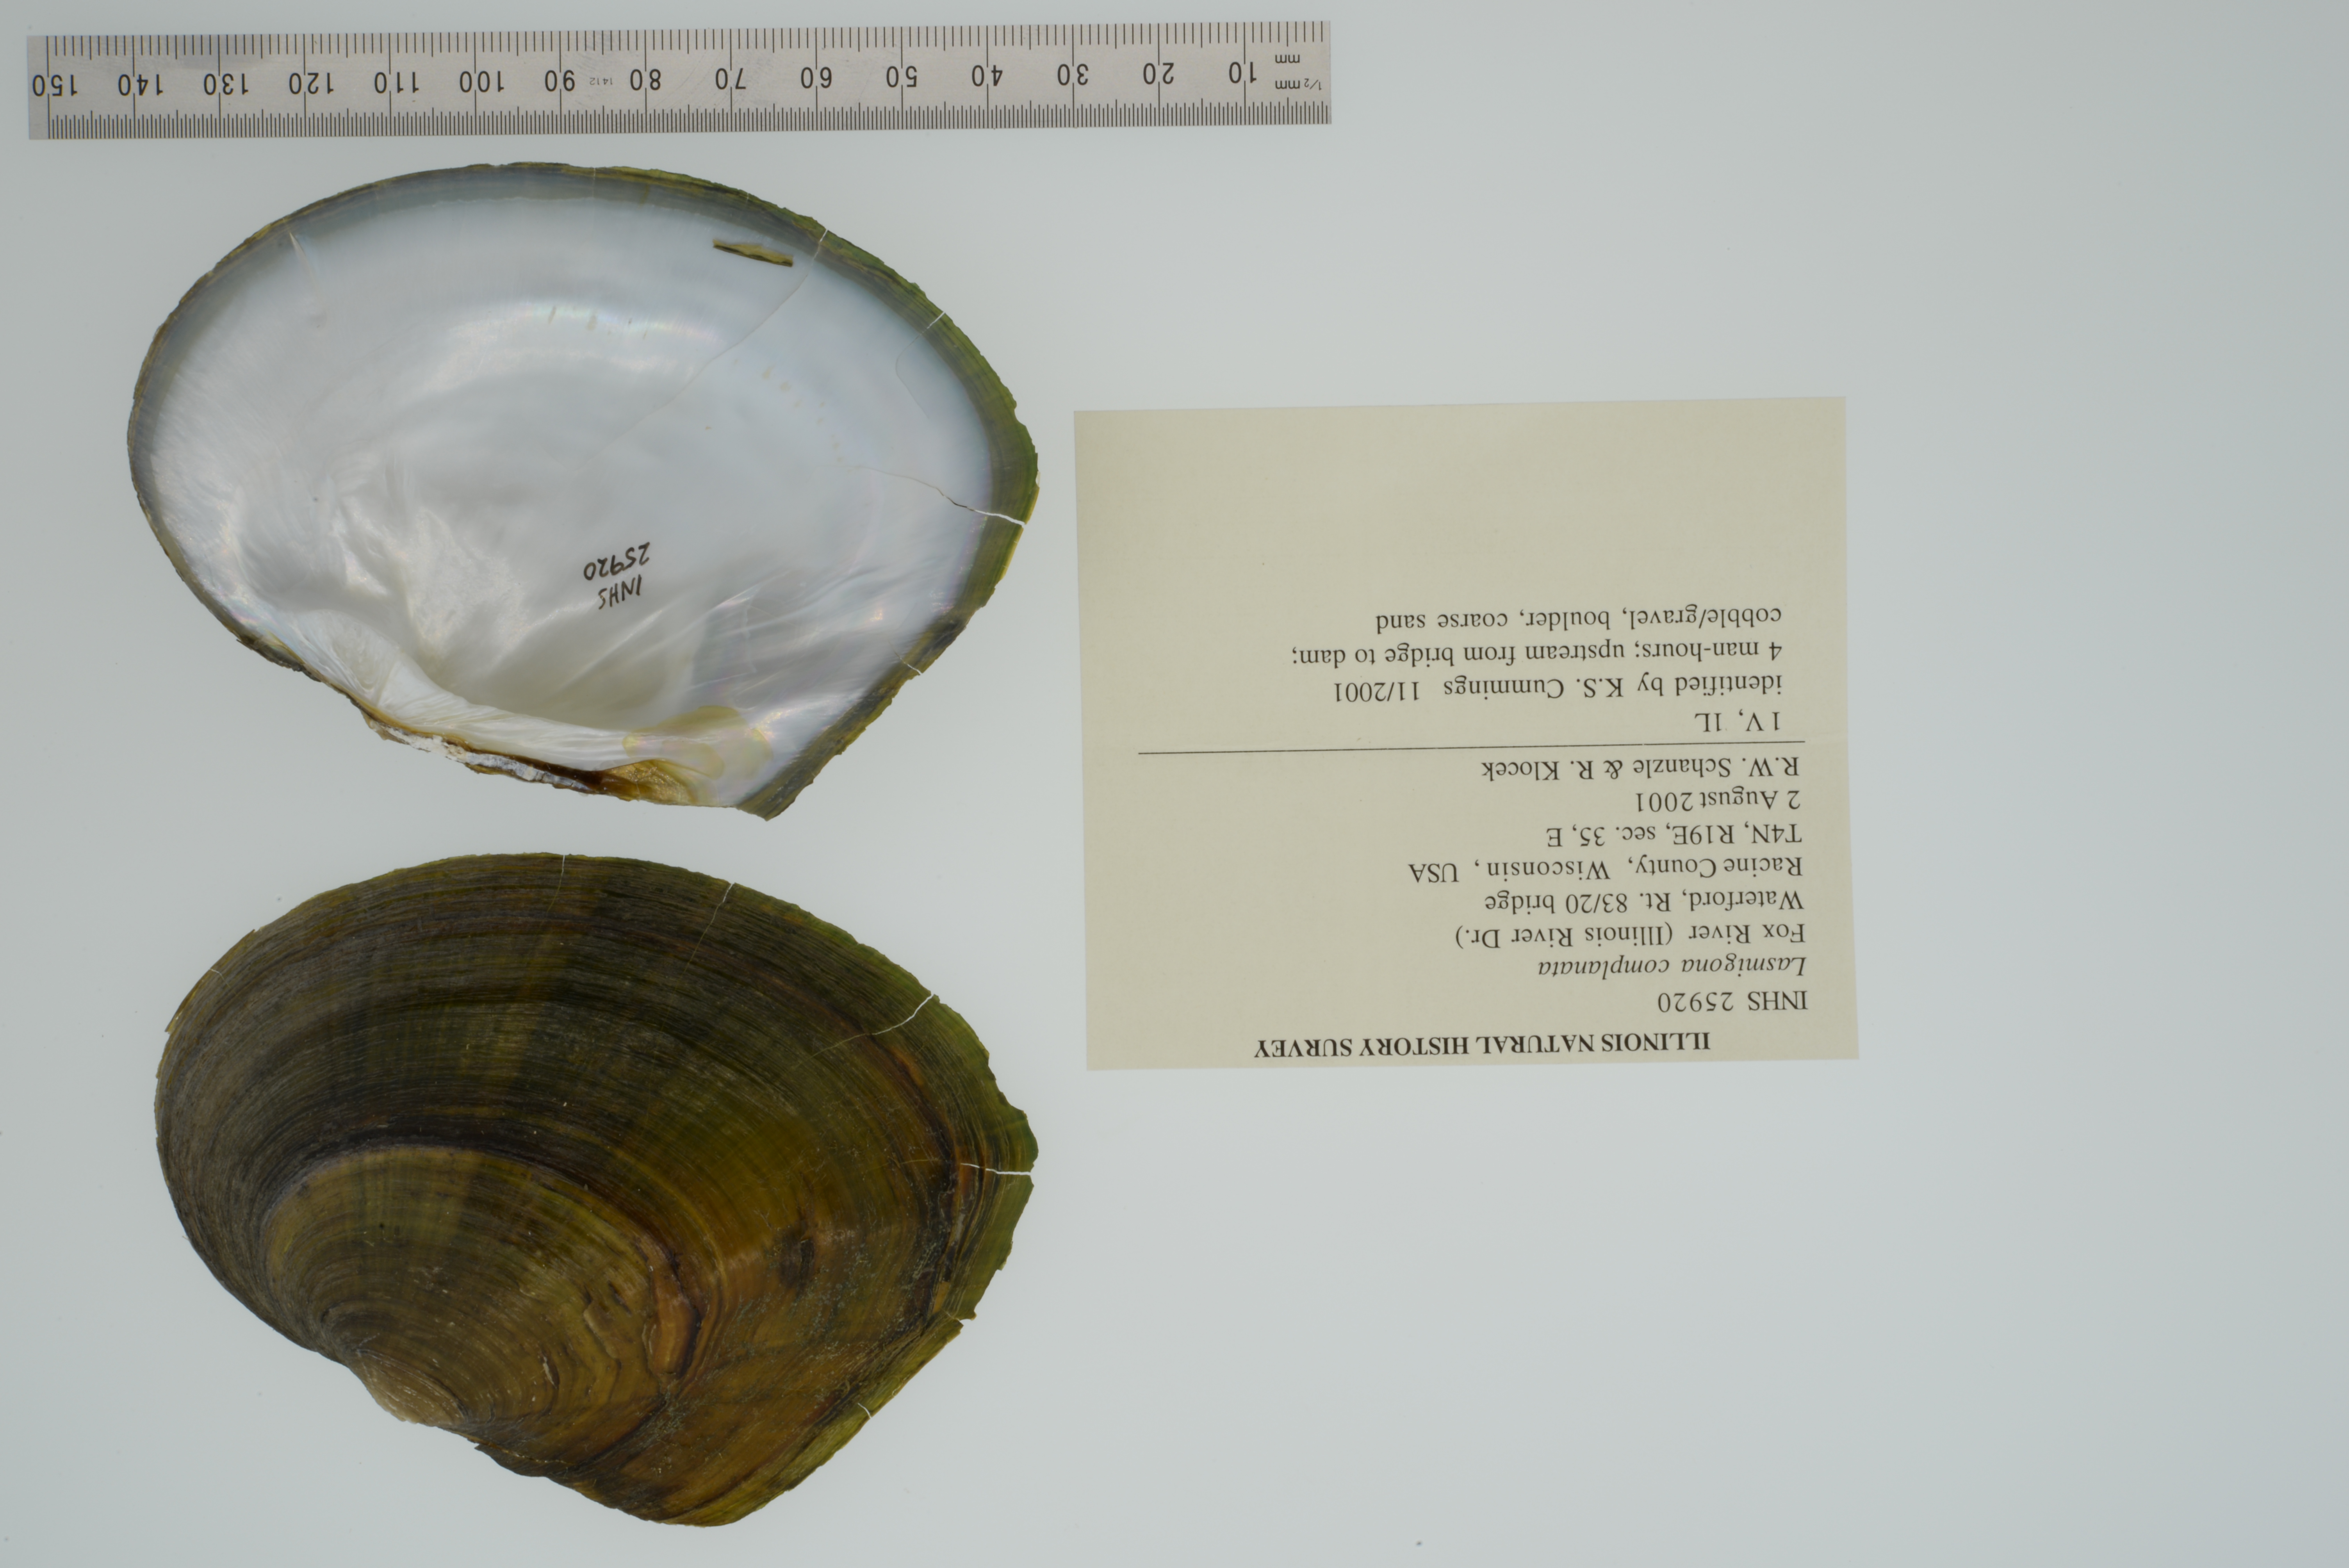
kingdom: Animalia
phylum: Mollusca
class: Bivalvia
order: Unionida
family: Unionidae
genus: Lasmigona
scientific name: Lasmigona complanata
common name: White heelsplitter
